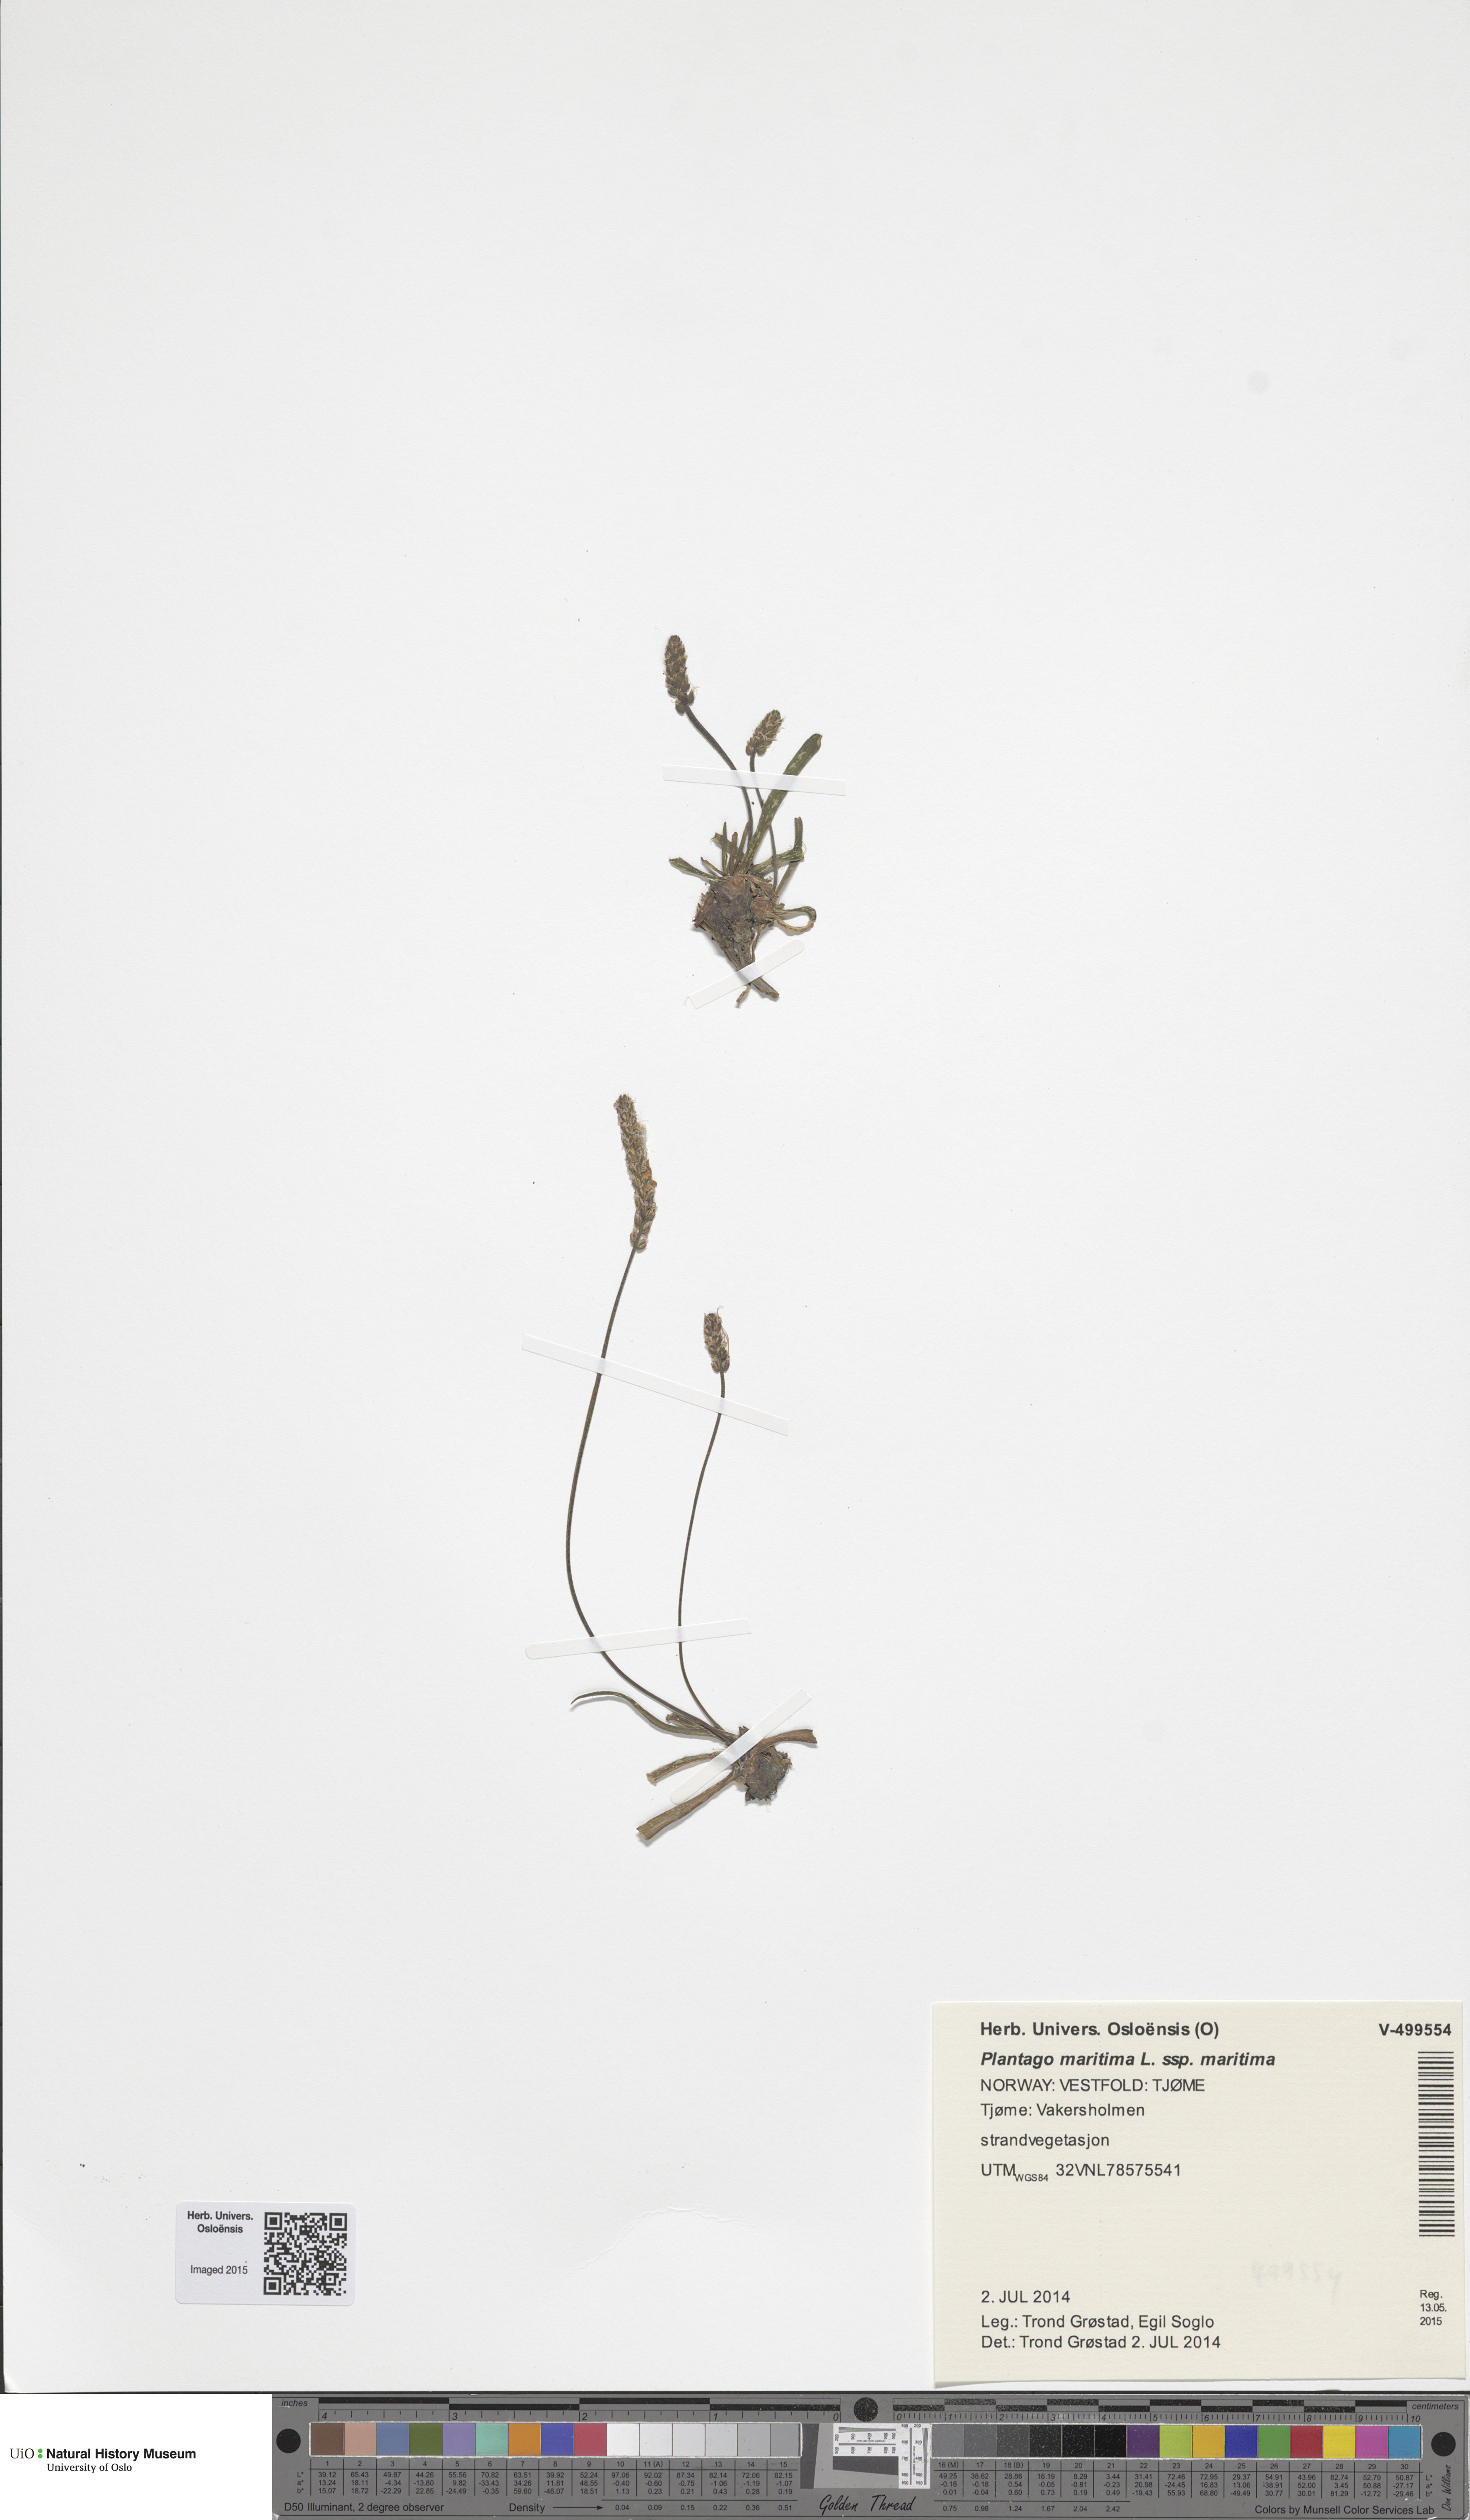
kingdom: Plantae
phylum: Tracheophyta
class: Magnoliopsida
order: Lamiales
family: Plantaginaceae
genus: Plantago
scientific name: Plantago maritima
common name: Sea plantain
